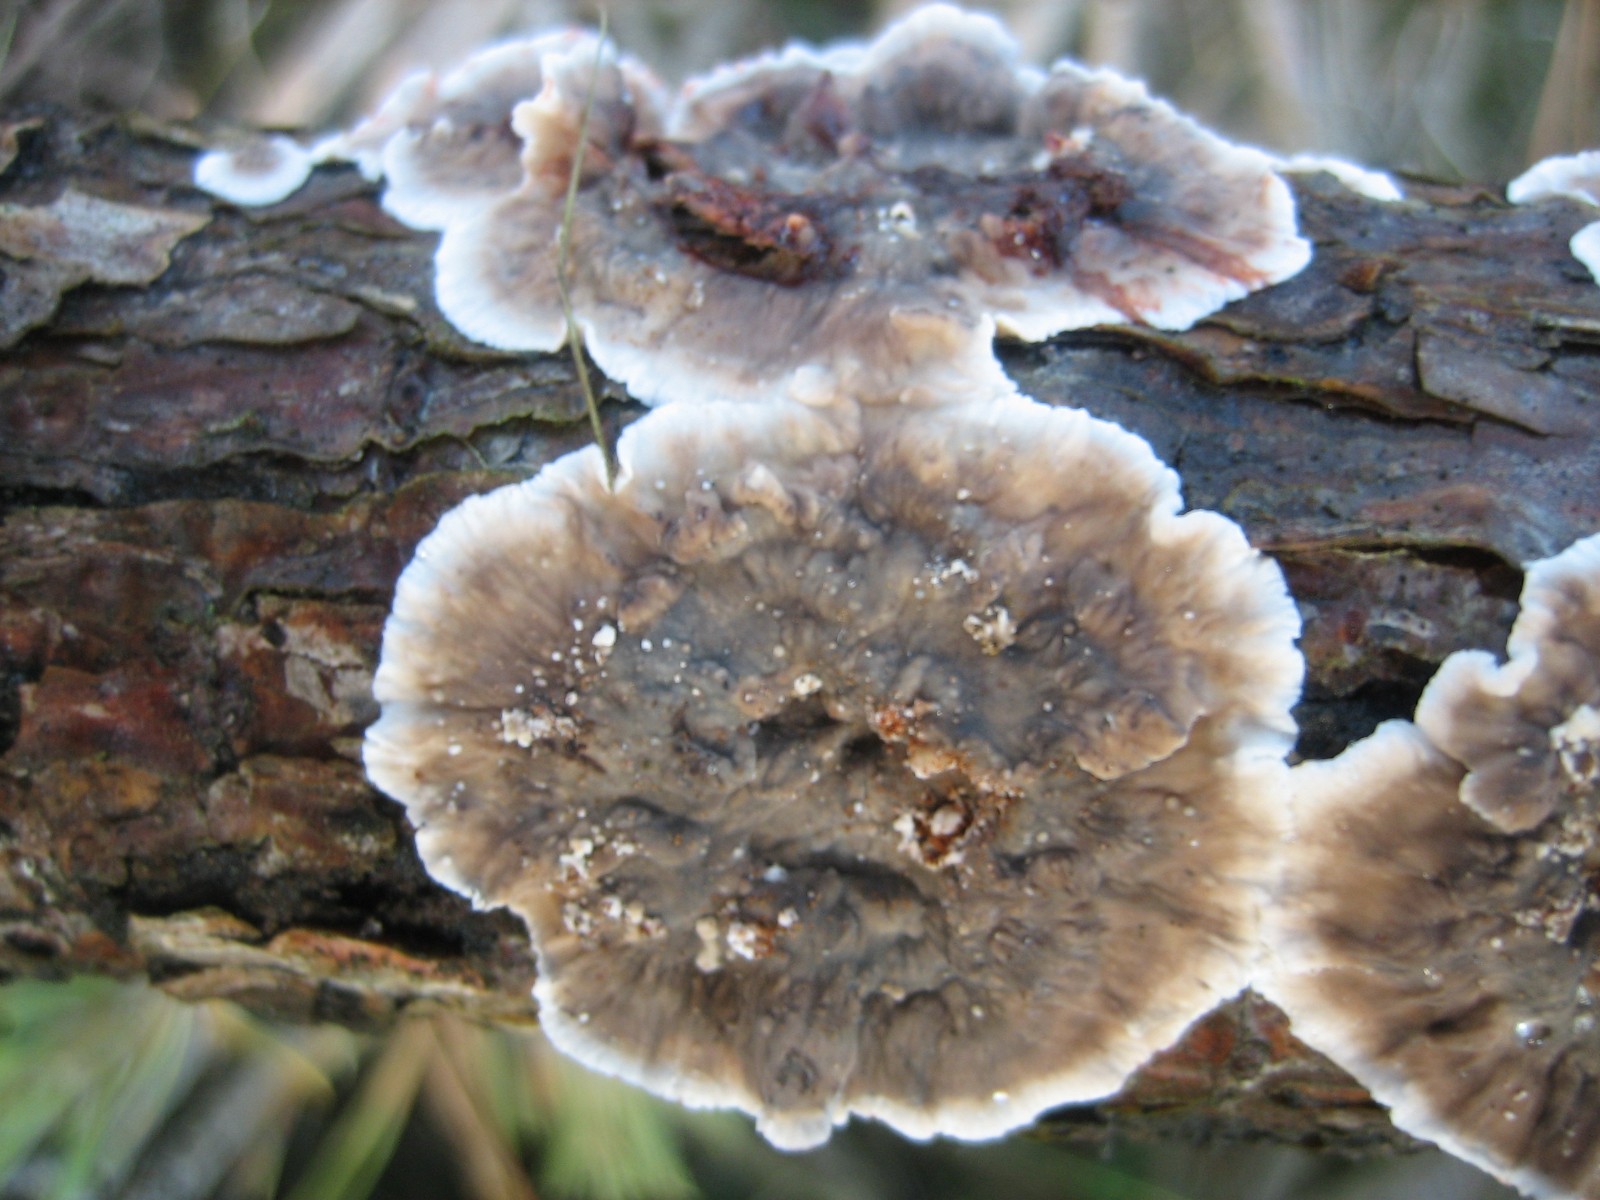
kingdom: Fungi
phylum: Basidiomycota
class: Agaricomycetes
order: Russulales
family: Stereaceae
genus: Stereum
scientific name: Stereum sanguinolentum
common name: blødende lædersvamp
